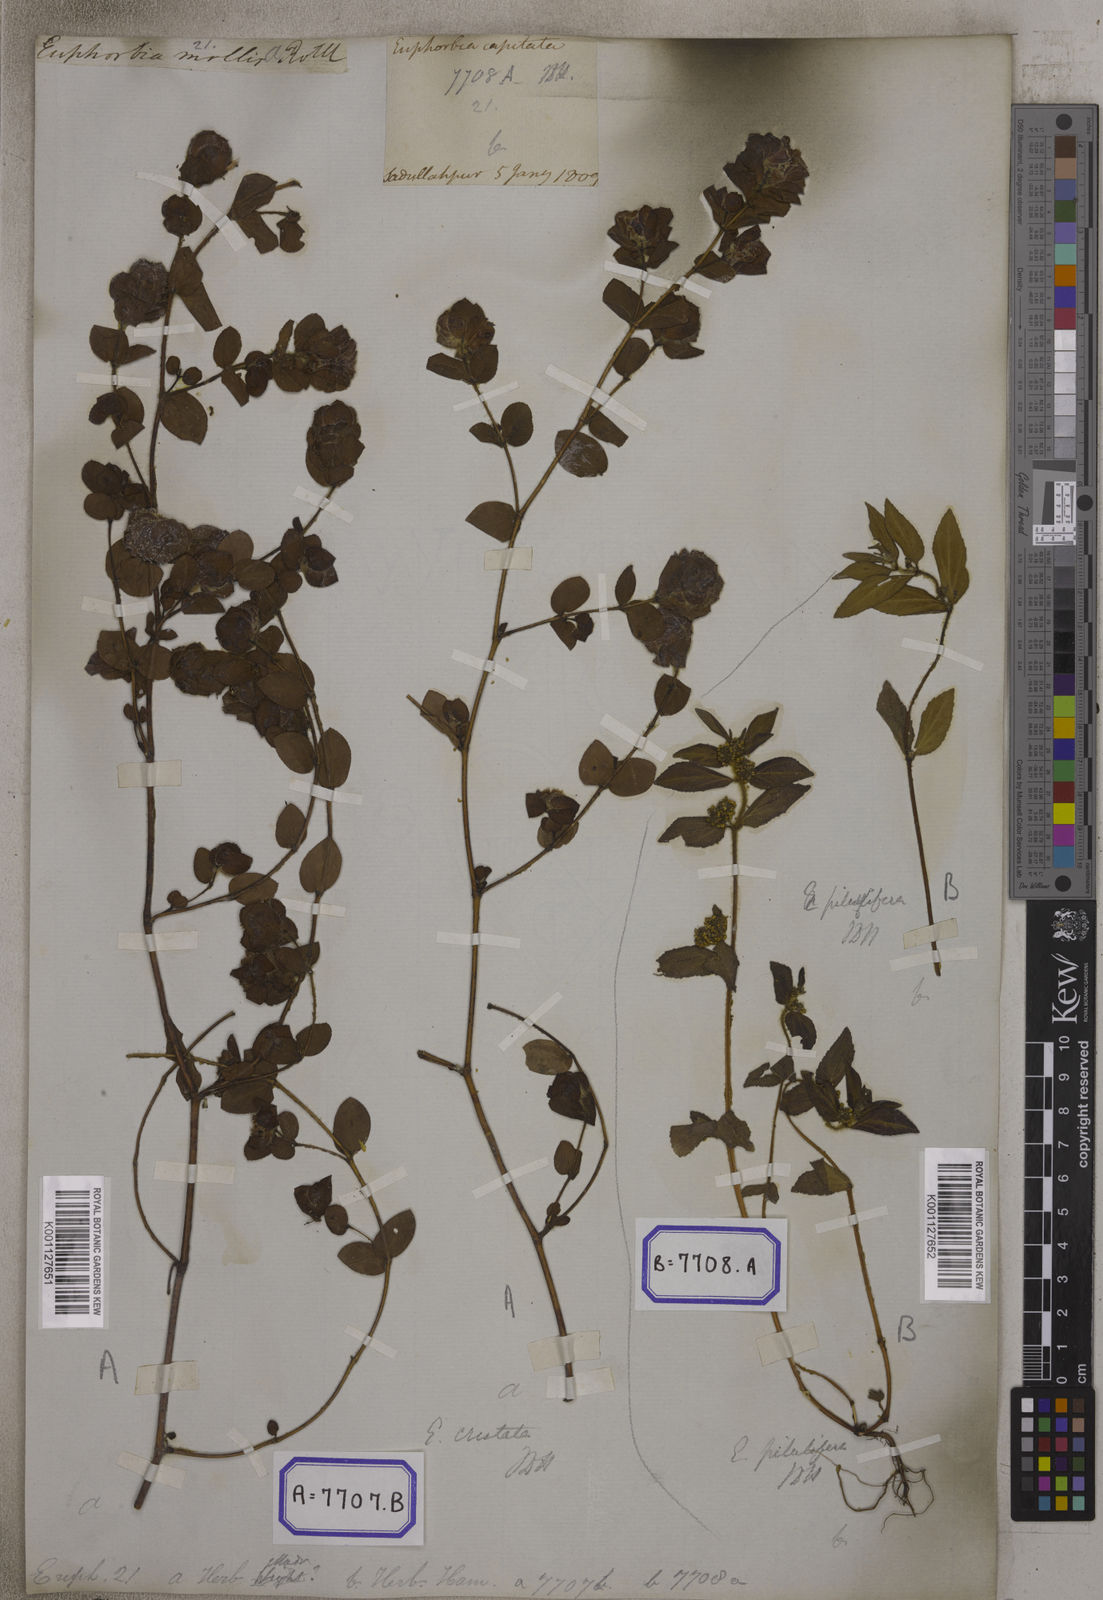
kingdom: Plantae
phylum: Tracheophyta
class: Magnoliopsida
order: Malpighiales
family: Euphorbiaceae
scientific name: Euphorbiaceae
